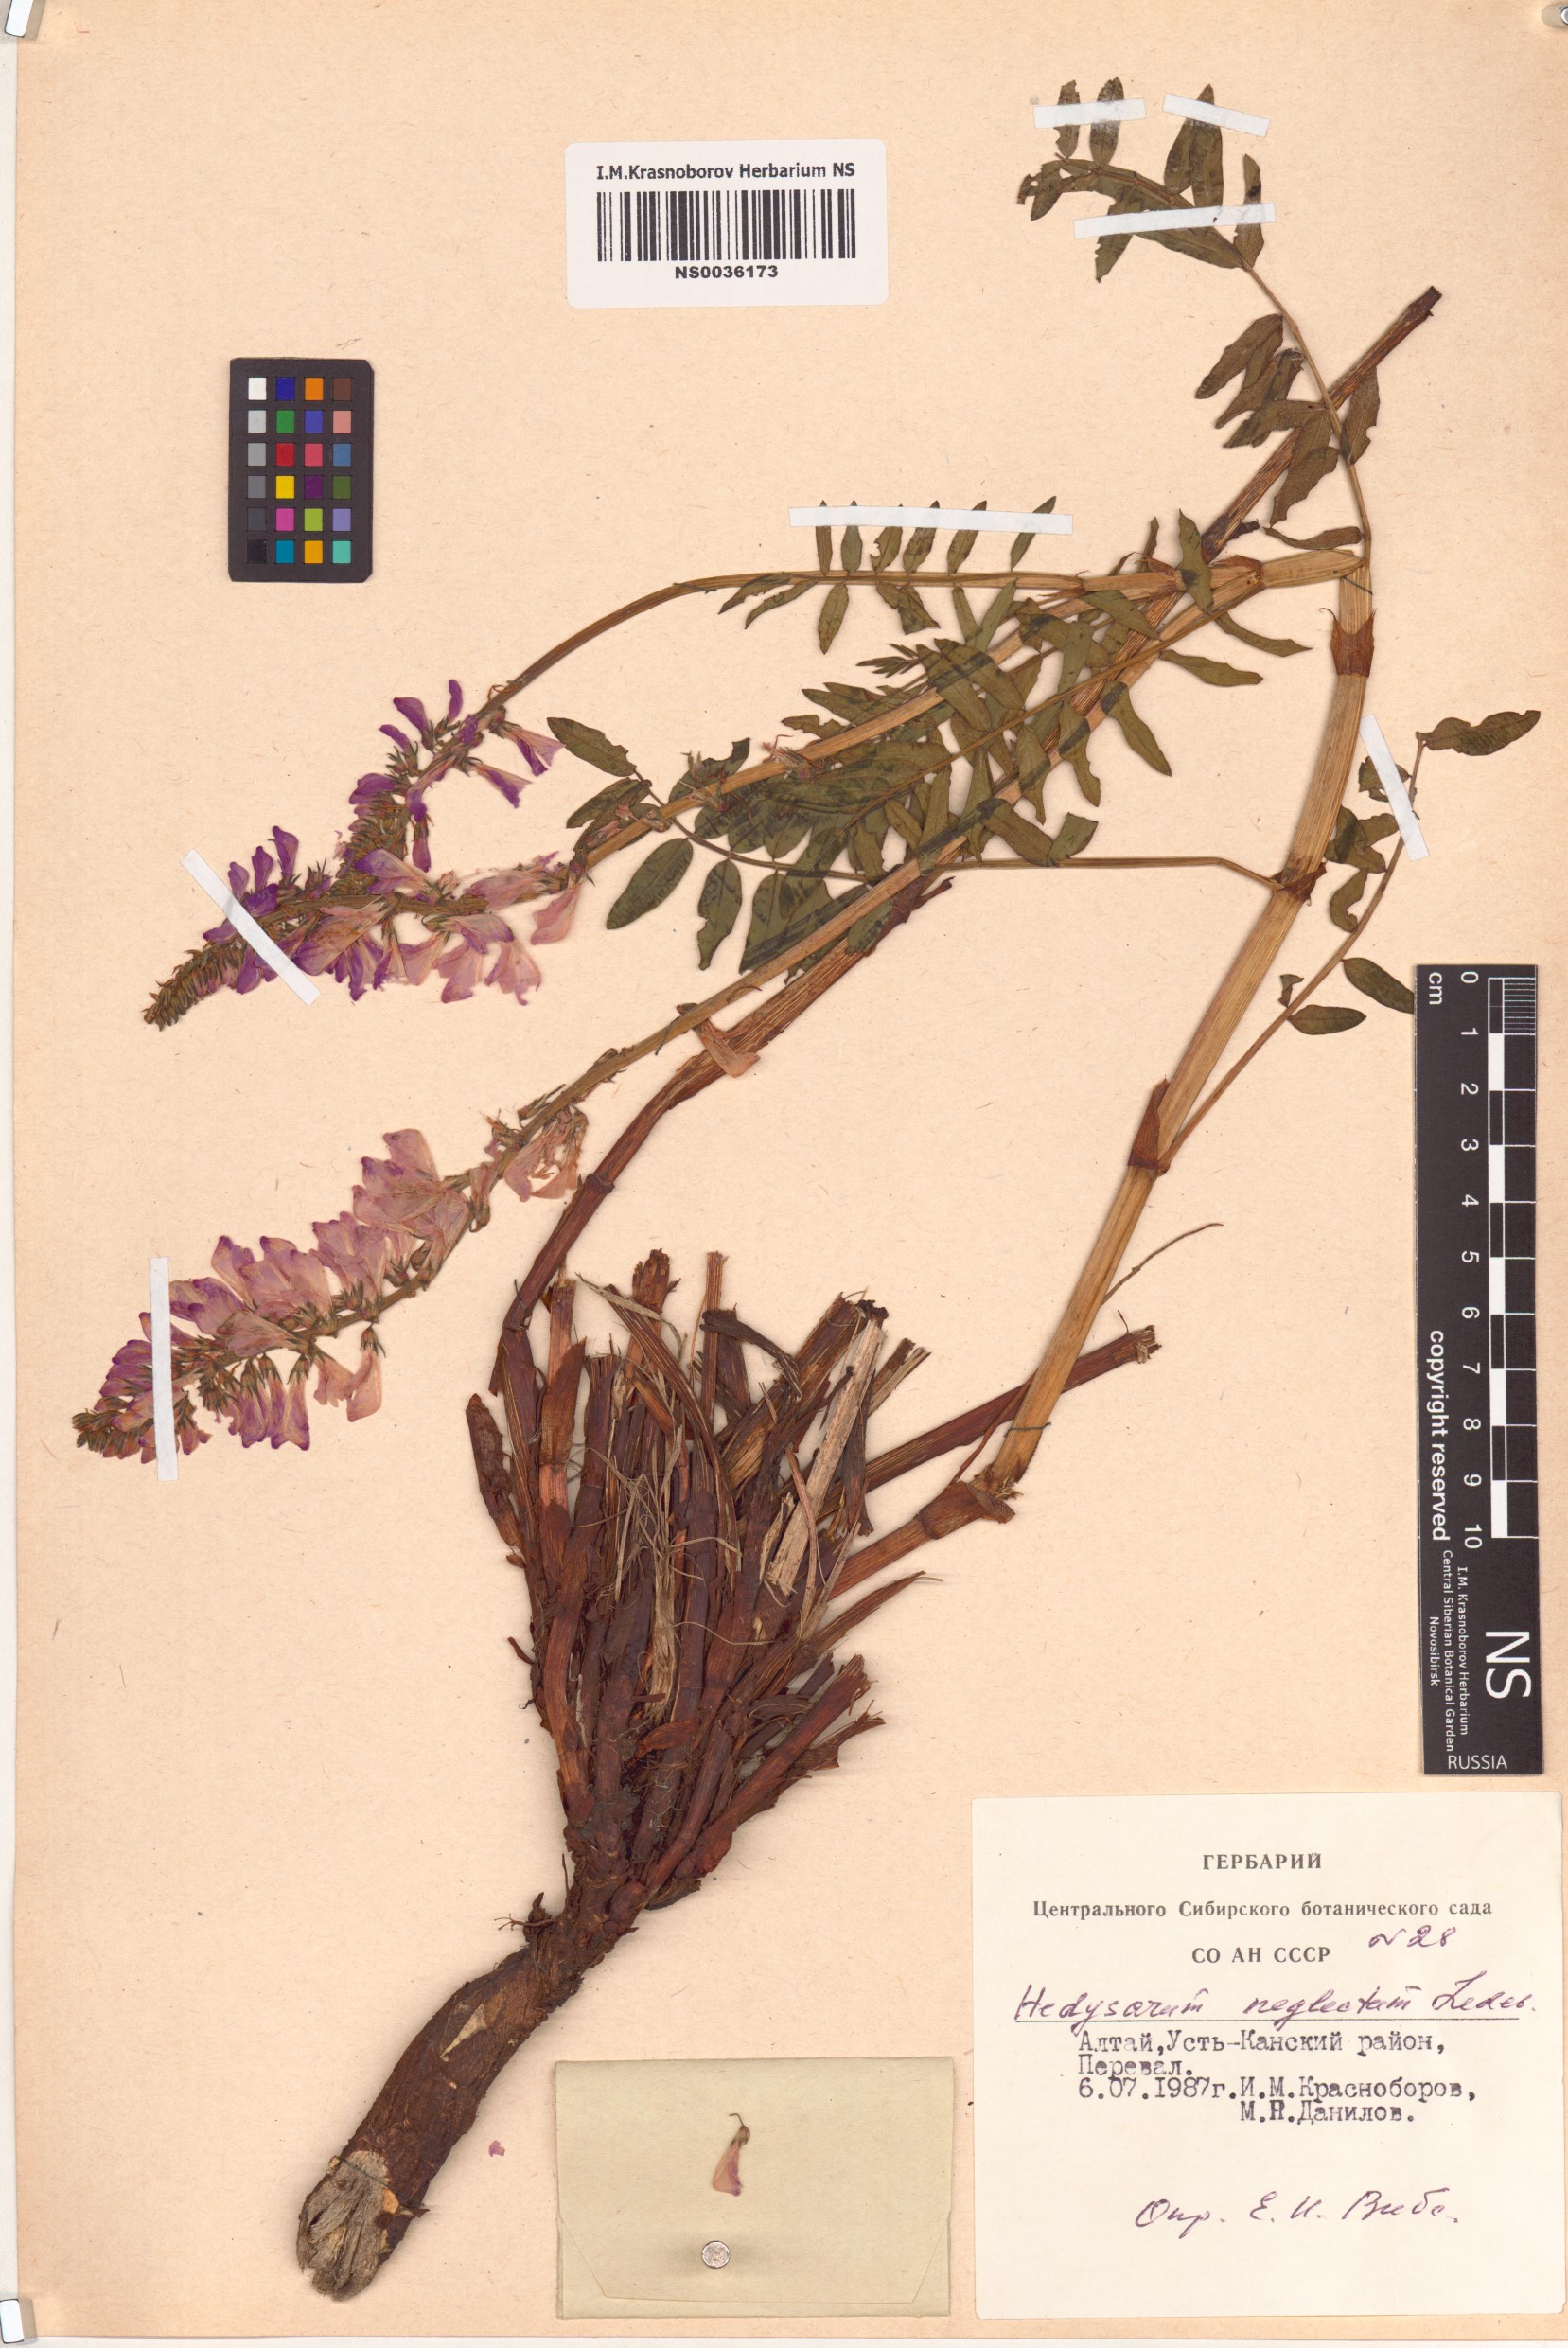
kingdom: Plantae
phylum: Tracheophyta
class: Magnoliopsida
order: Fabales
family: Fabaceae
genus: Hedysarum
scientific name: Hedysarum neglectum
